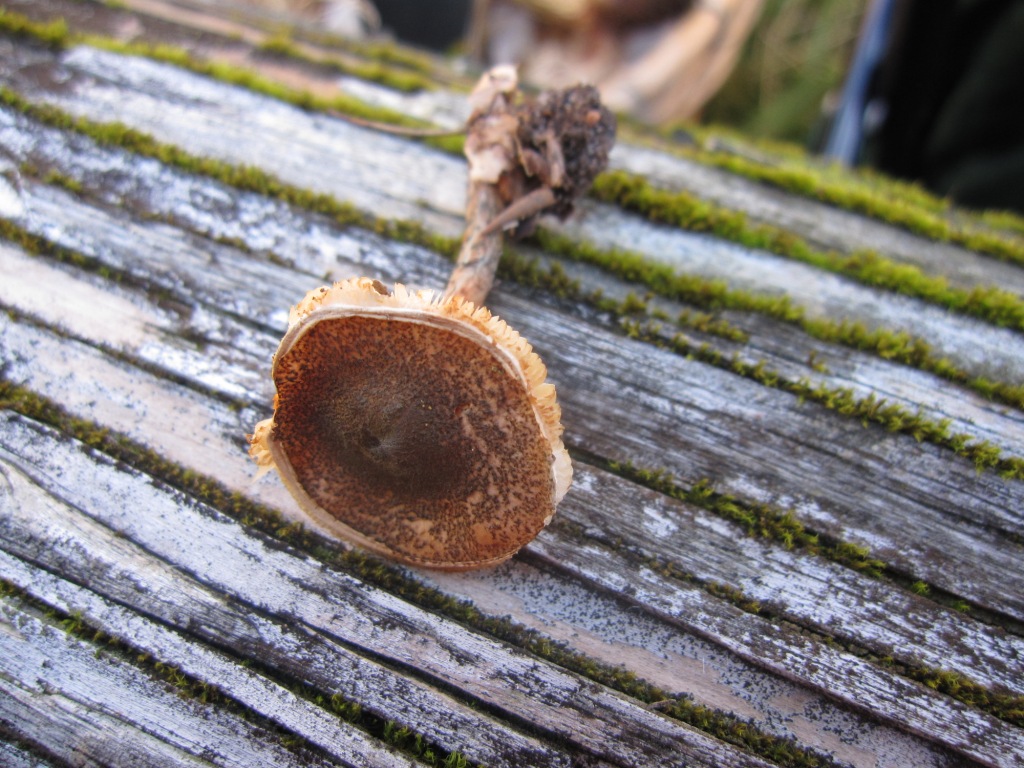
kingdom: Fungi
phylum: Basidiomycota
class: Agaricomycetes
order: Agaricales
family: Agaricaceae
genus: Lepiota
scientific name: Lepiota grangei
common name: grønskællet parasolhat
